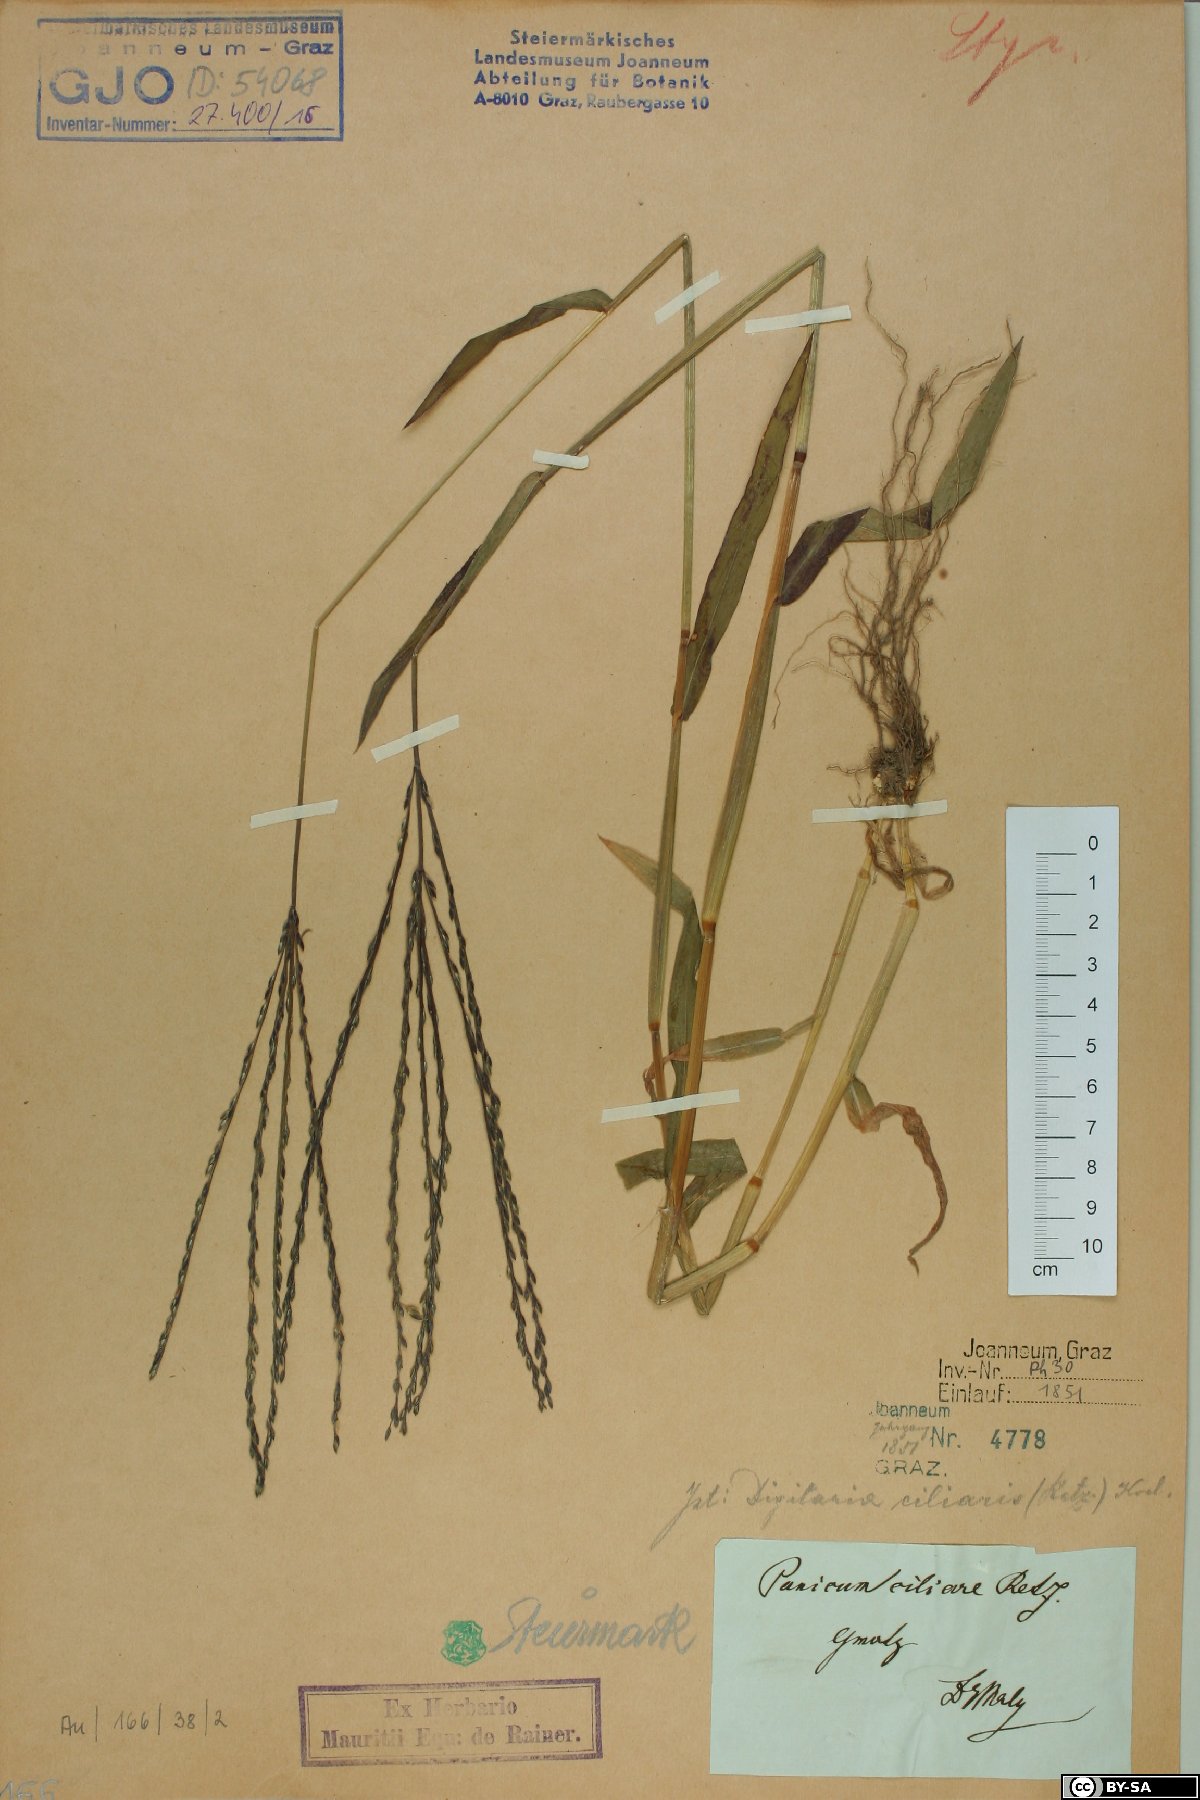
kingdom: Plantae
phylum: Tracheophyta
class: Liliopsida
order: Poales
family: Poaceae
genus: Digitaria
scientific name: Digitaria ciliaris
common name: Tropical finger-grass
